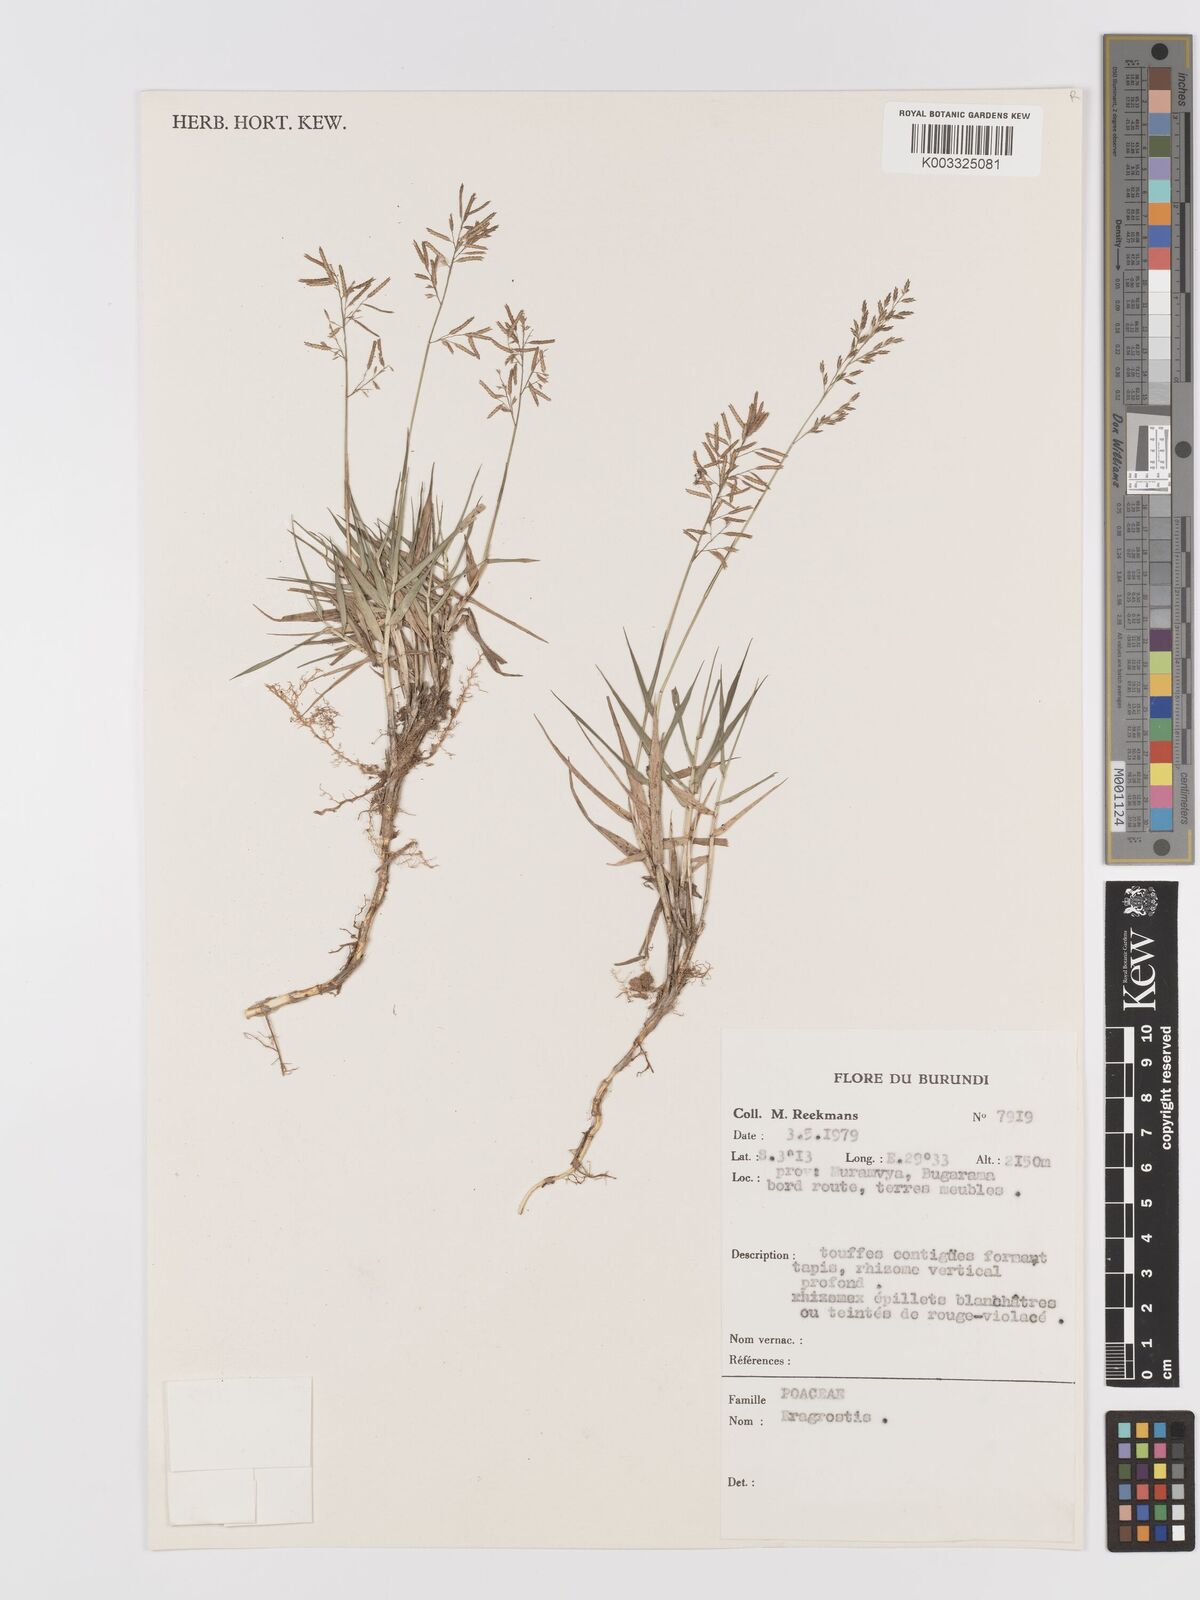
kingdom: Plantae
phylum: Tracheophyta
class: Liliopsida
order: Poales
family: Poaceae
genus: Eragrostis
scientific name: Eragrostis
